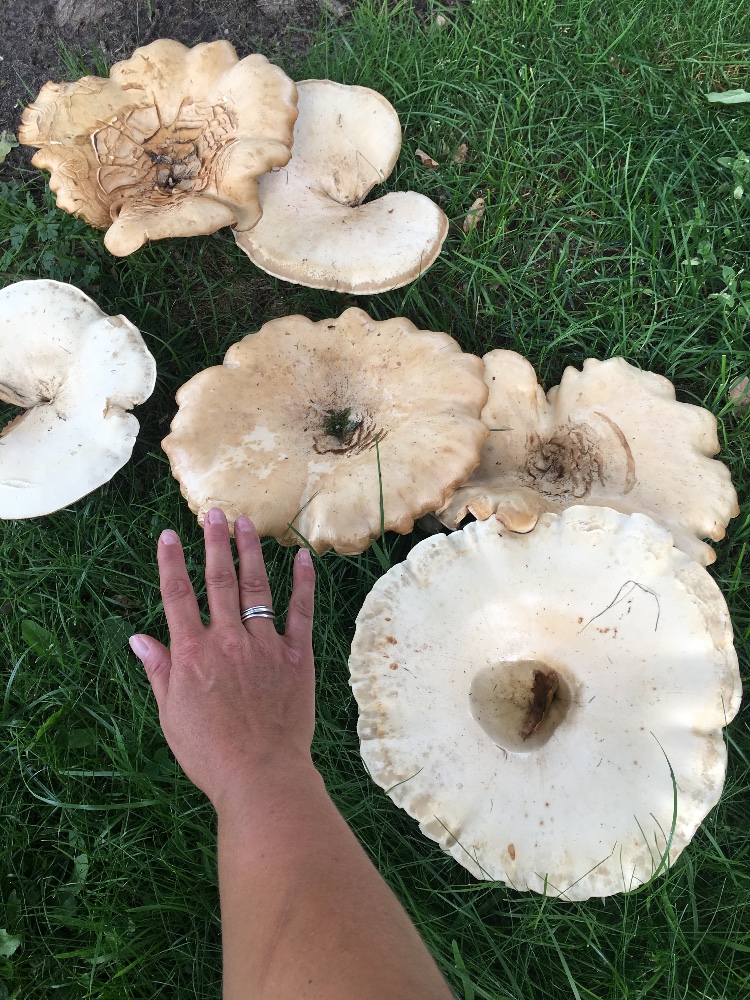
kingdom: Fungi
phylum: Basidiomycota
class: Agaricomycetes
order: Agaricales
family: Tricholomataceae
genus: Aspropaxillus
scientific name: Aspropaxillus giganteus
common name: kæmpe-tragtridderhat
